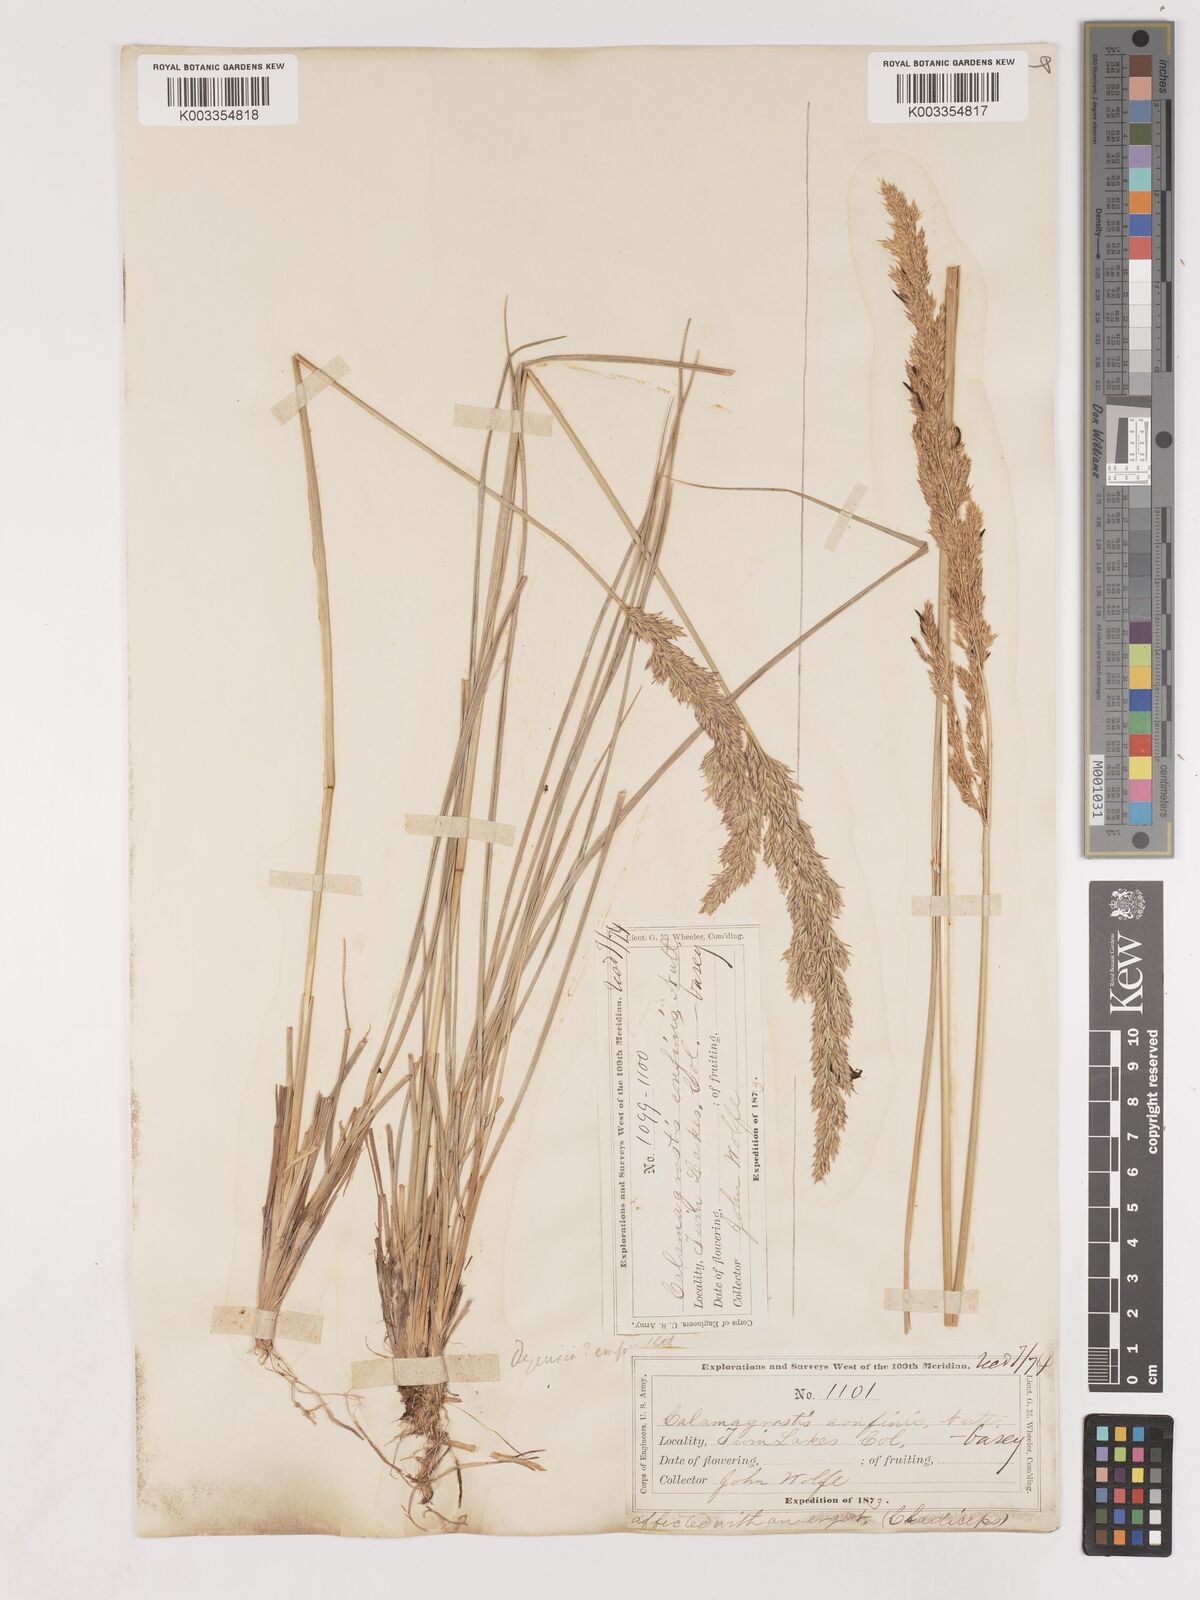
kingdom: Plantae
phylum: Tracheophyta
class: Liliopsida
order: Poales
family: Poaceae
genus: Calamagrostis
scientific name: Calamagrostis
